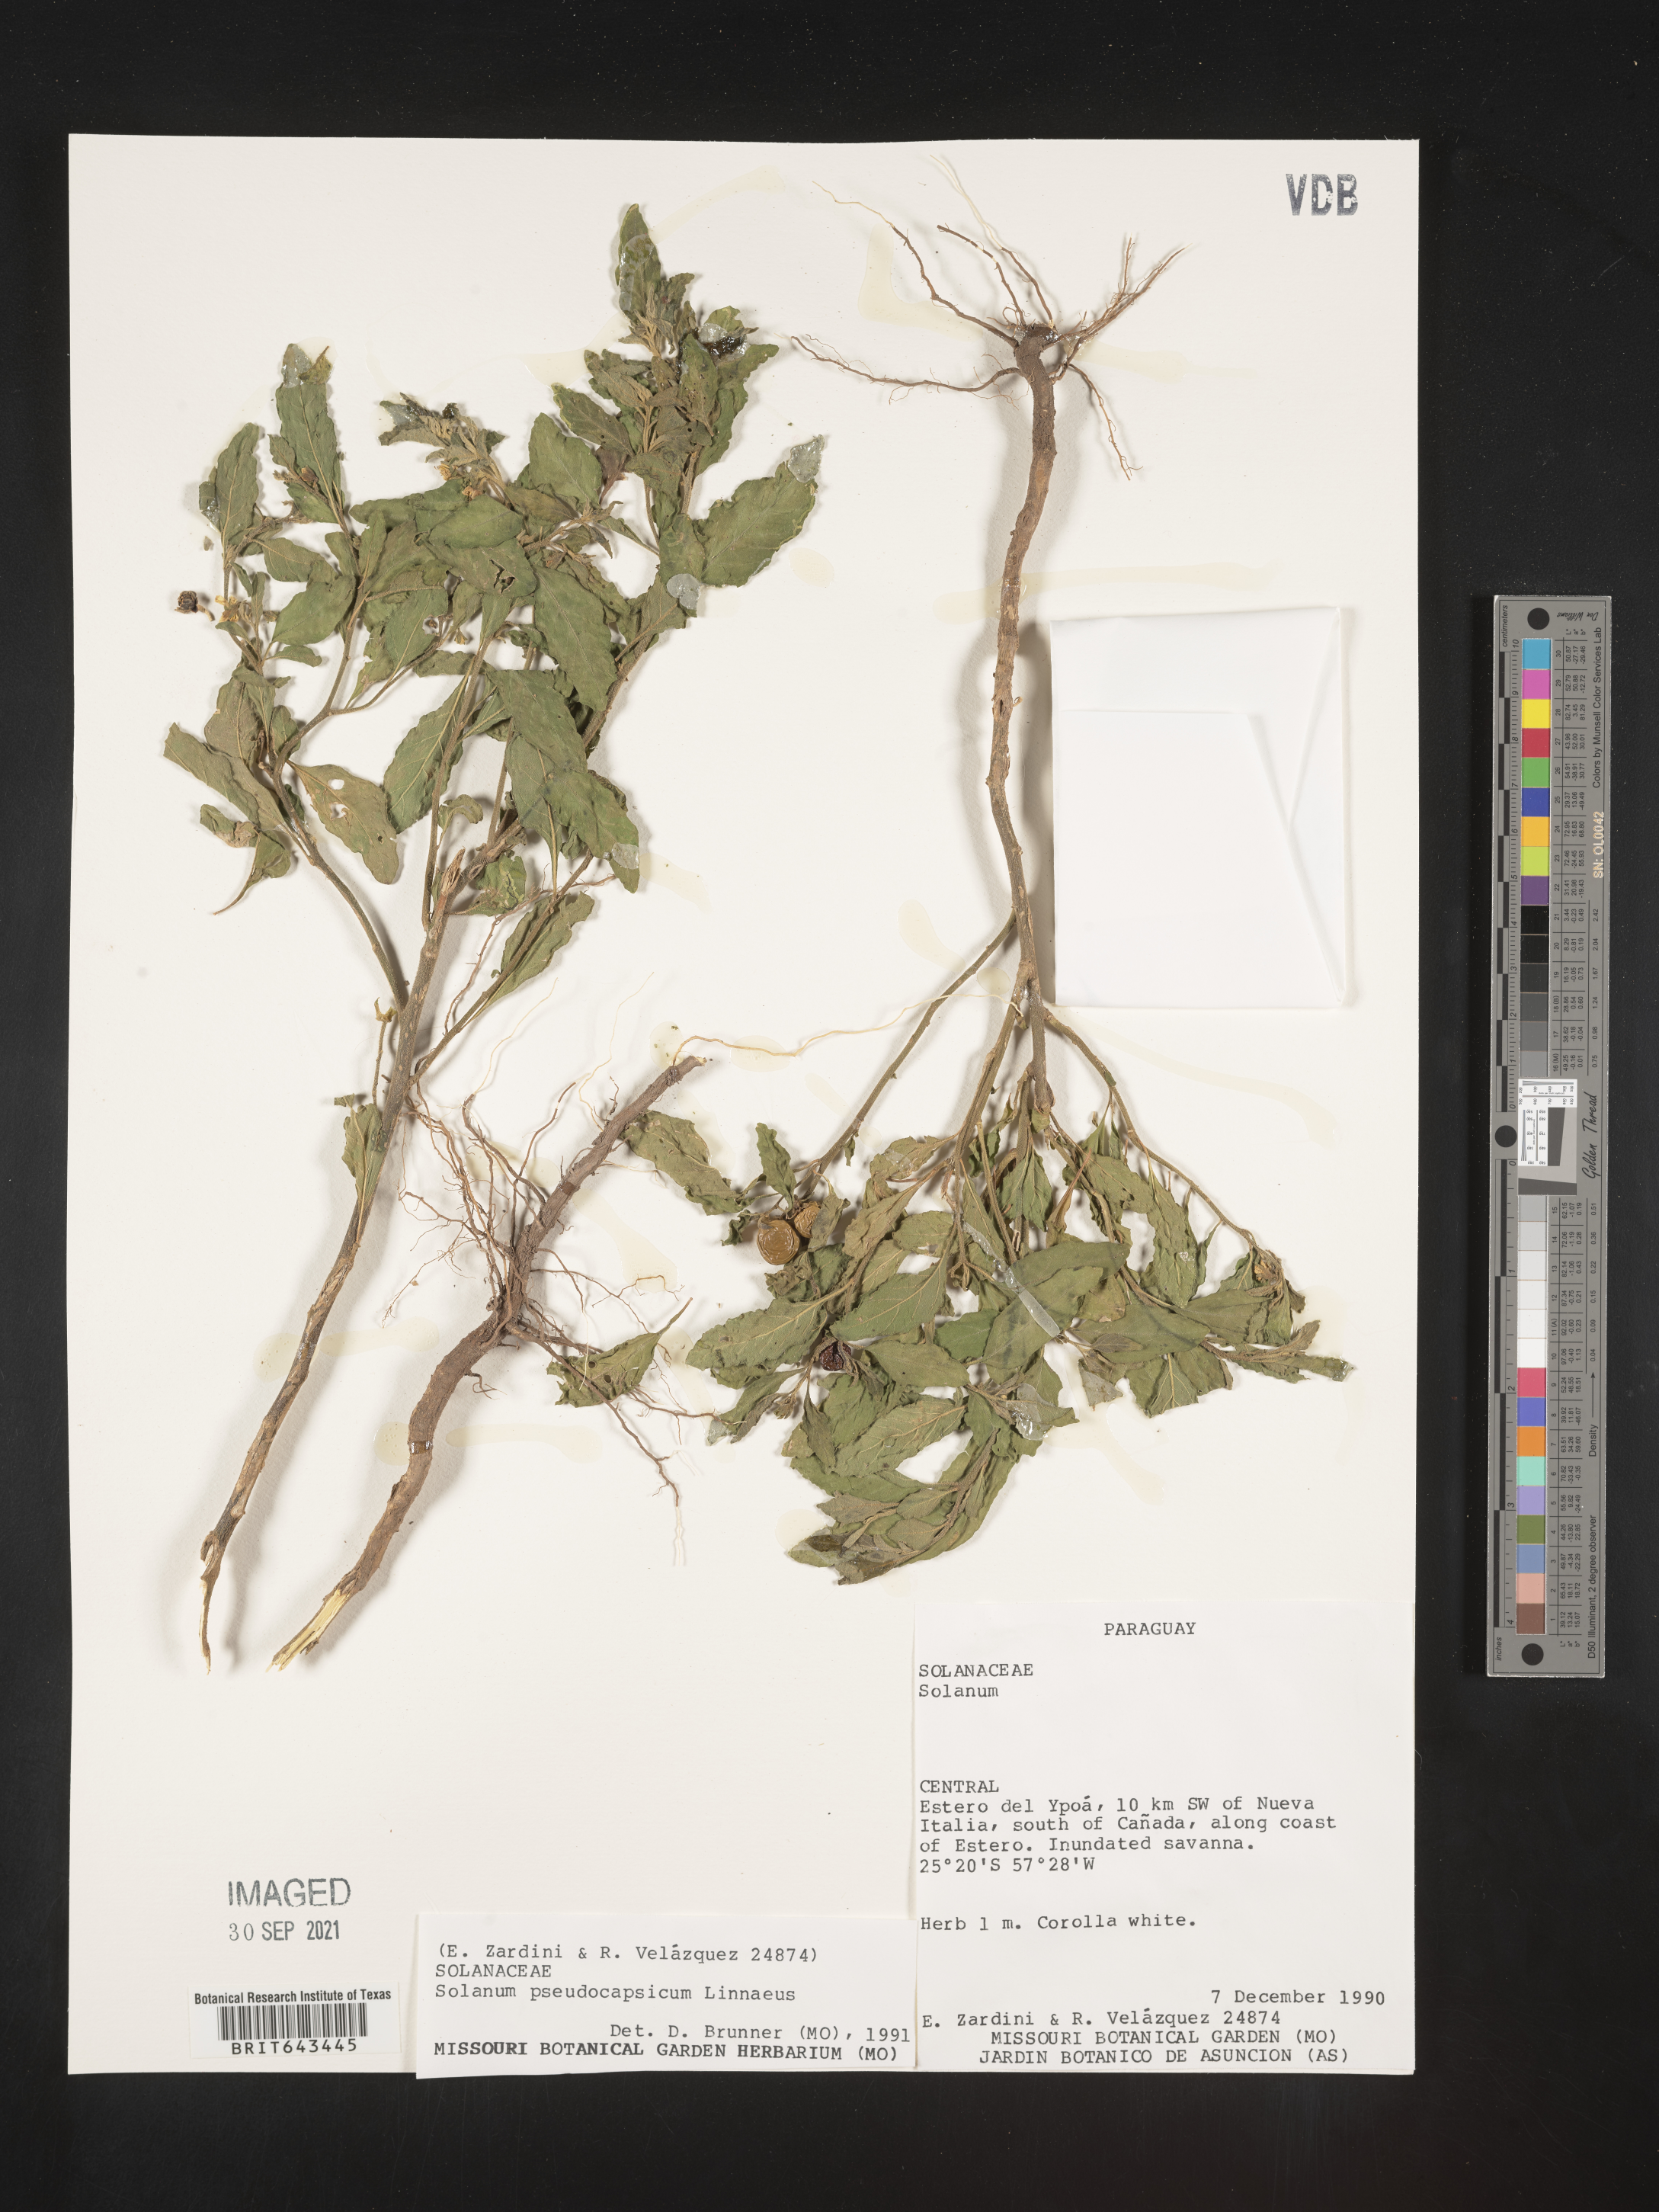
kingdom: Plantae
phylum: Tracheophyta
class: Magnoliopsida
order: Solanales
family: Solanaceae
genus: Solanum
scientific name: Solanum
